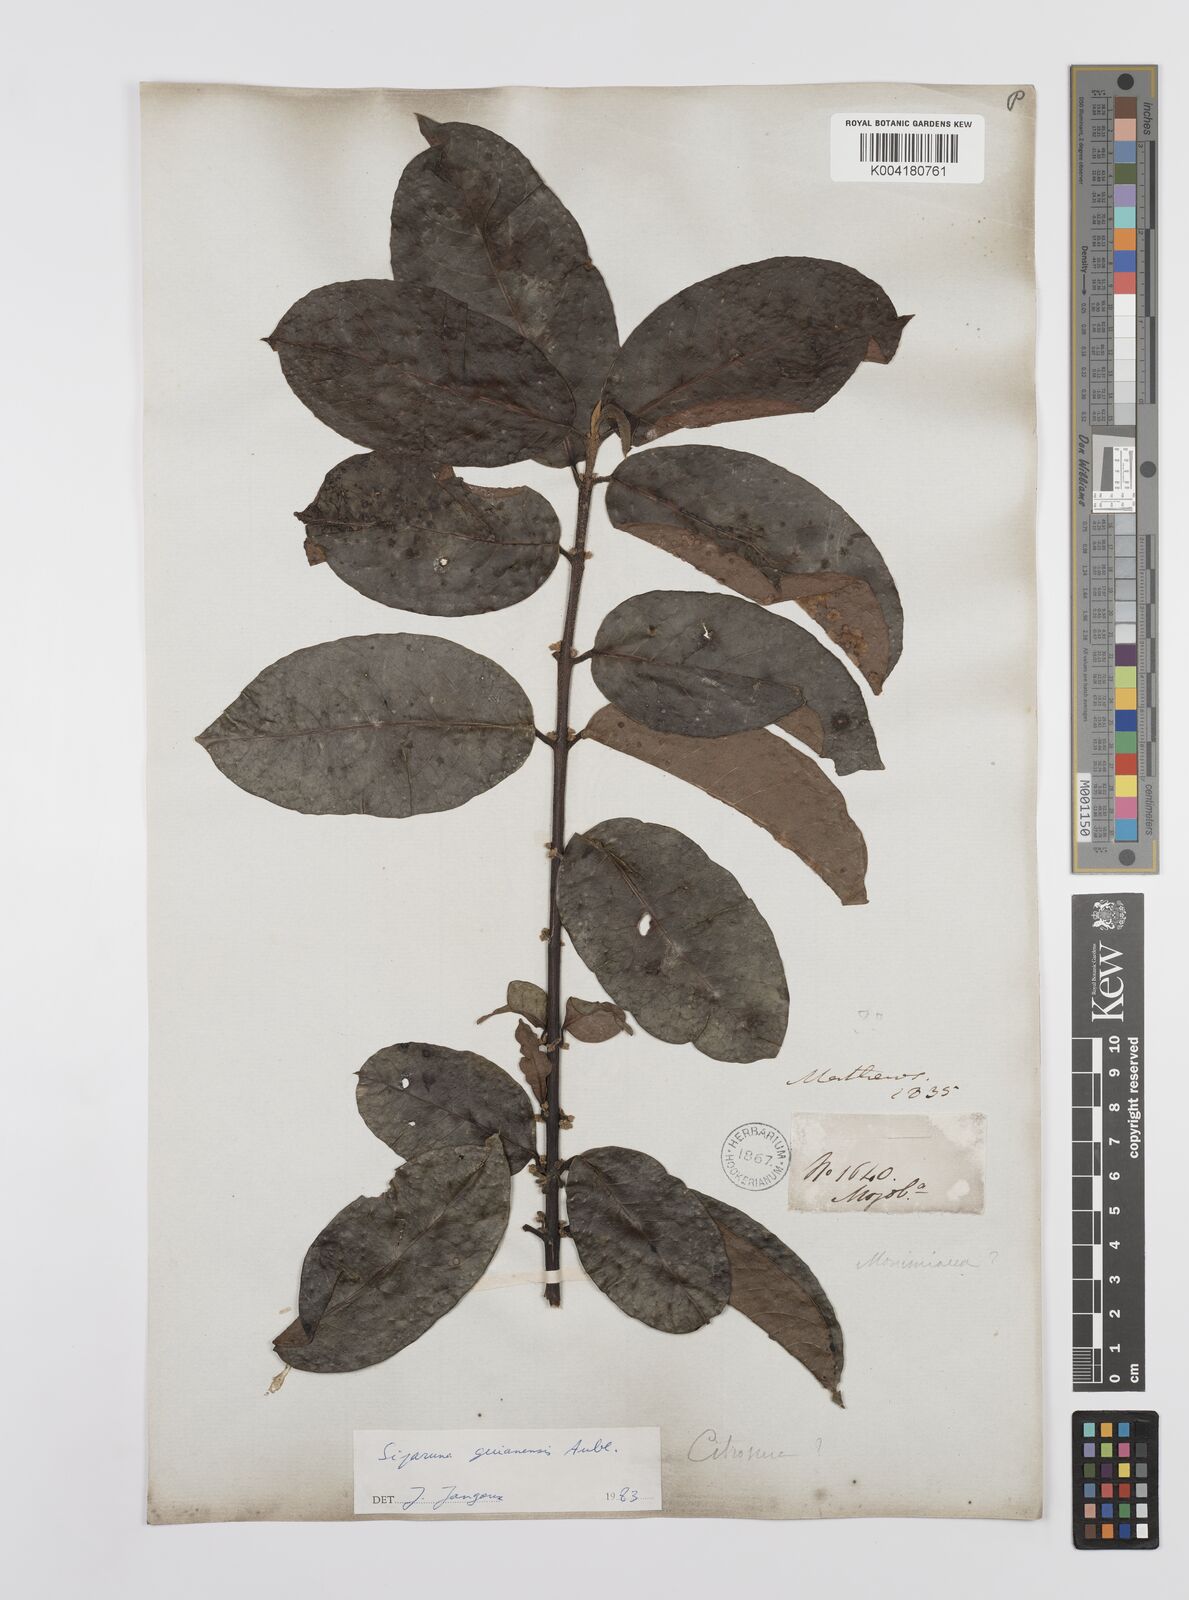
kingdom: Plantae
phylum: Tracheophyta
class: Magnoliopsida
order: Laurales
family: Siparunaceae
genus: Siparuna
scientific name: Siparuna guianensis
